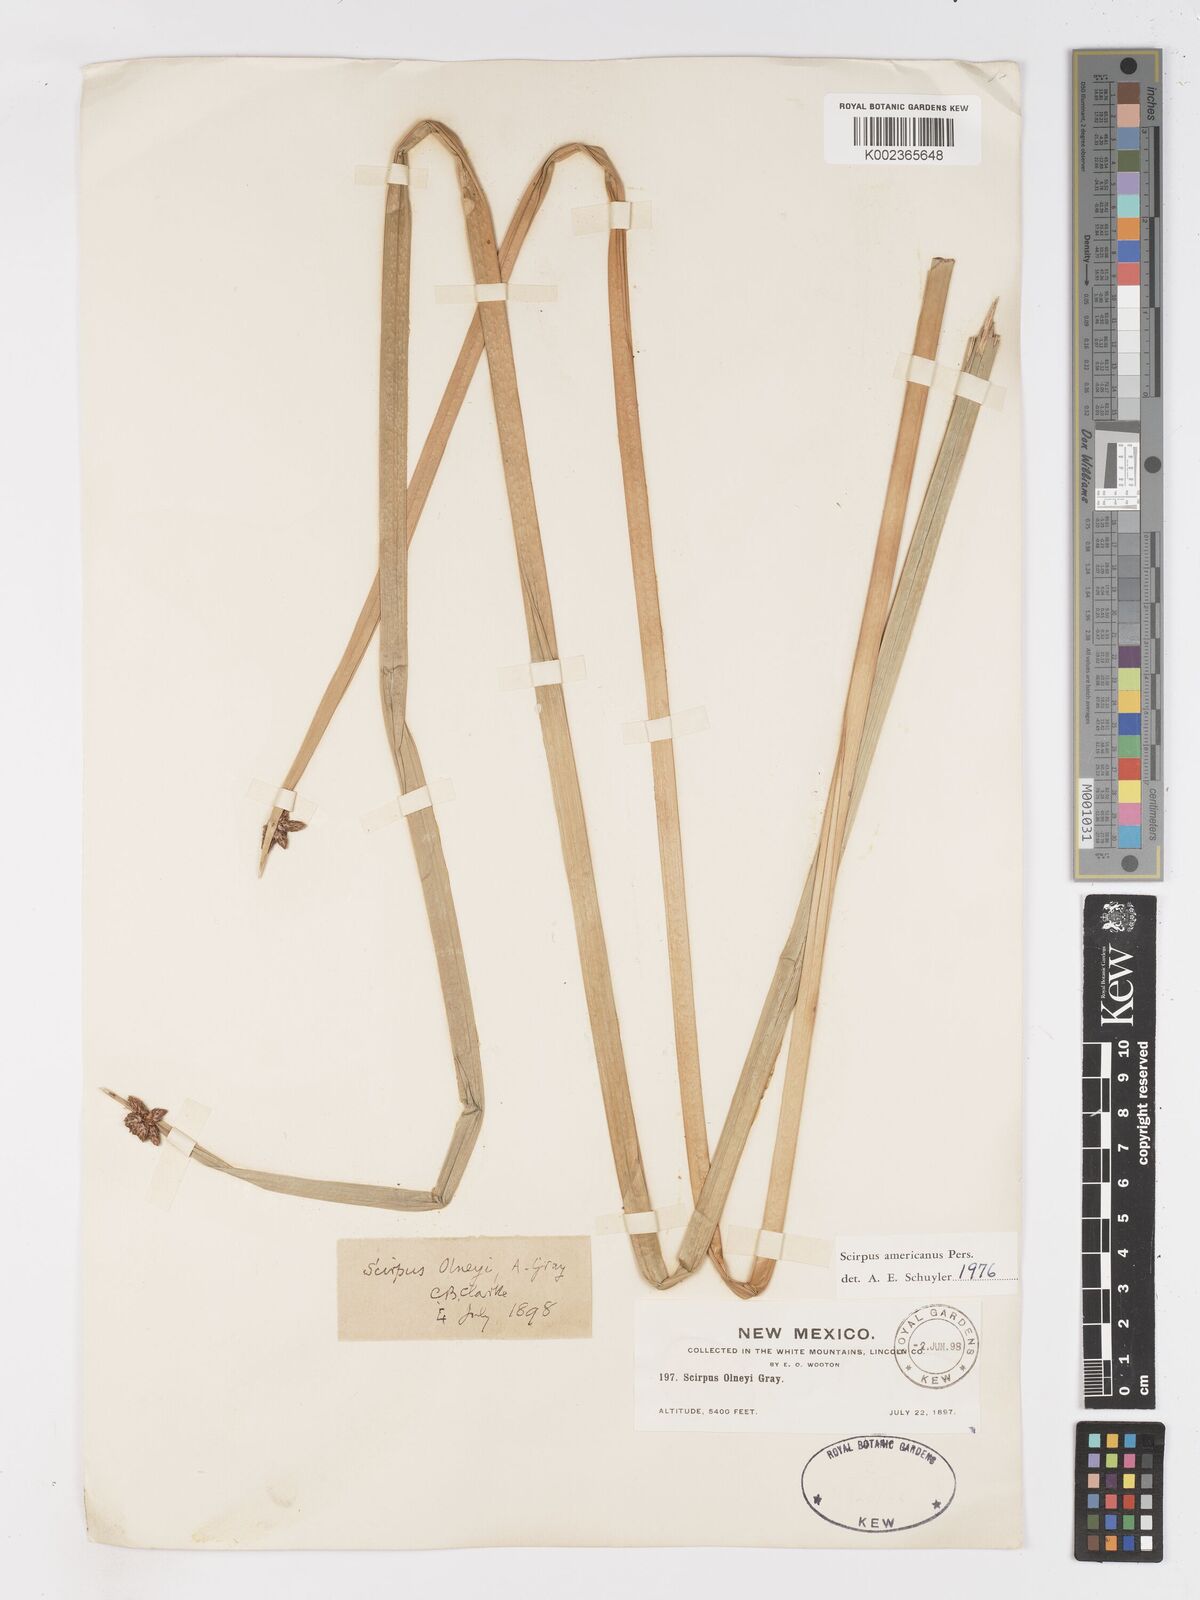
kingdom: Plantae
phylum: Tracheophyta
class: Liliopsida
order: Poales
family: Cyperaceae
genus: Schoenoplectus
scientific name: Schoenoplectus americanus
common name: American three-square bulrush
